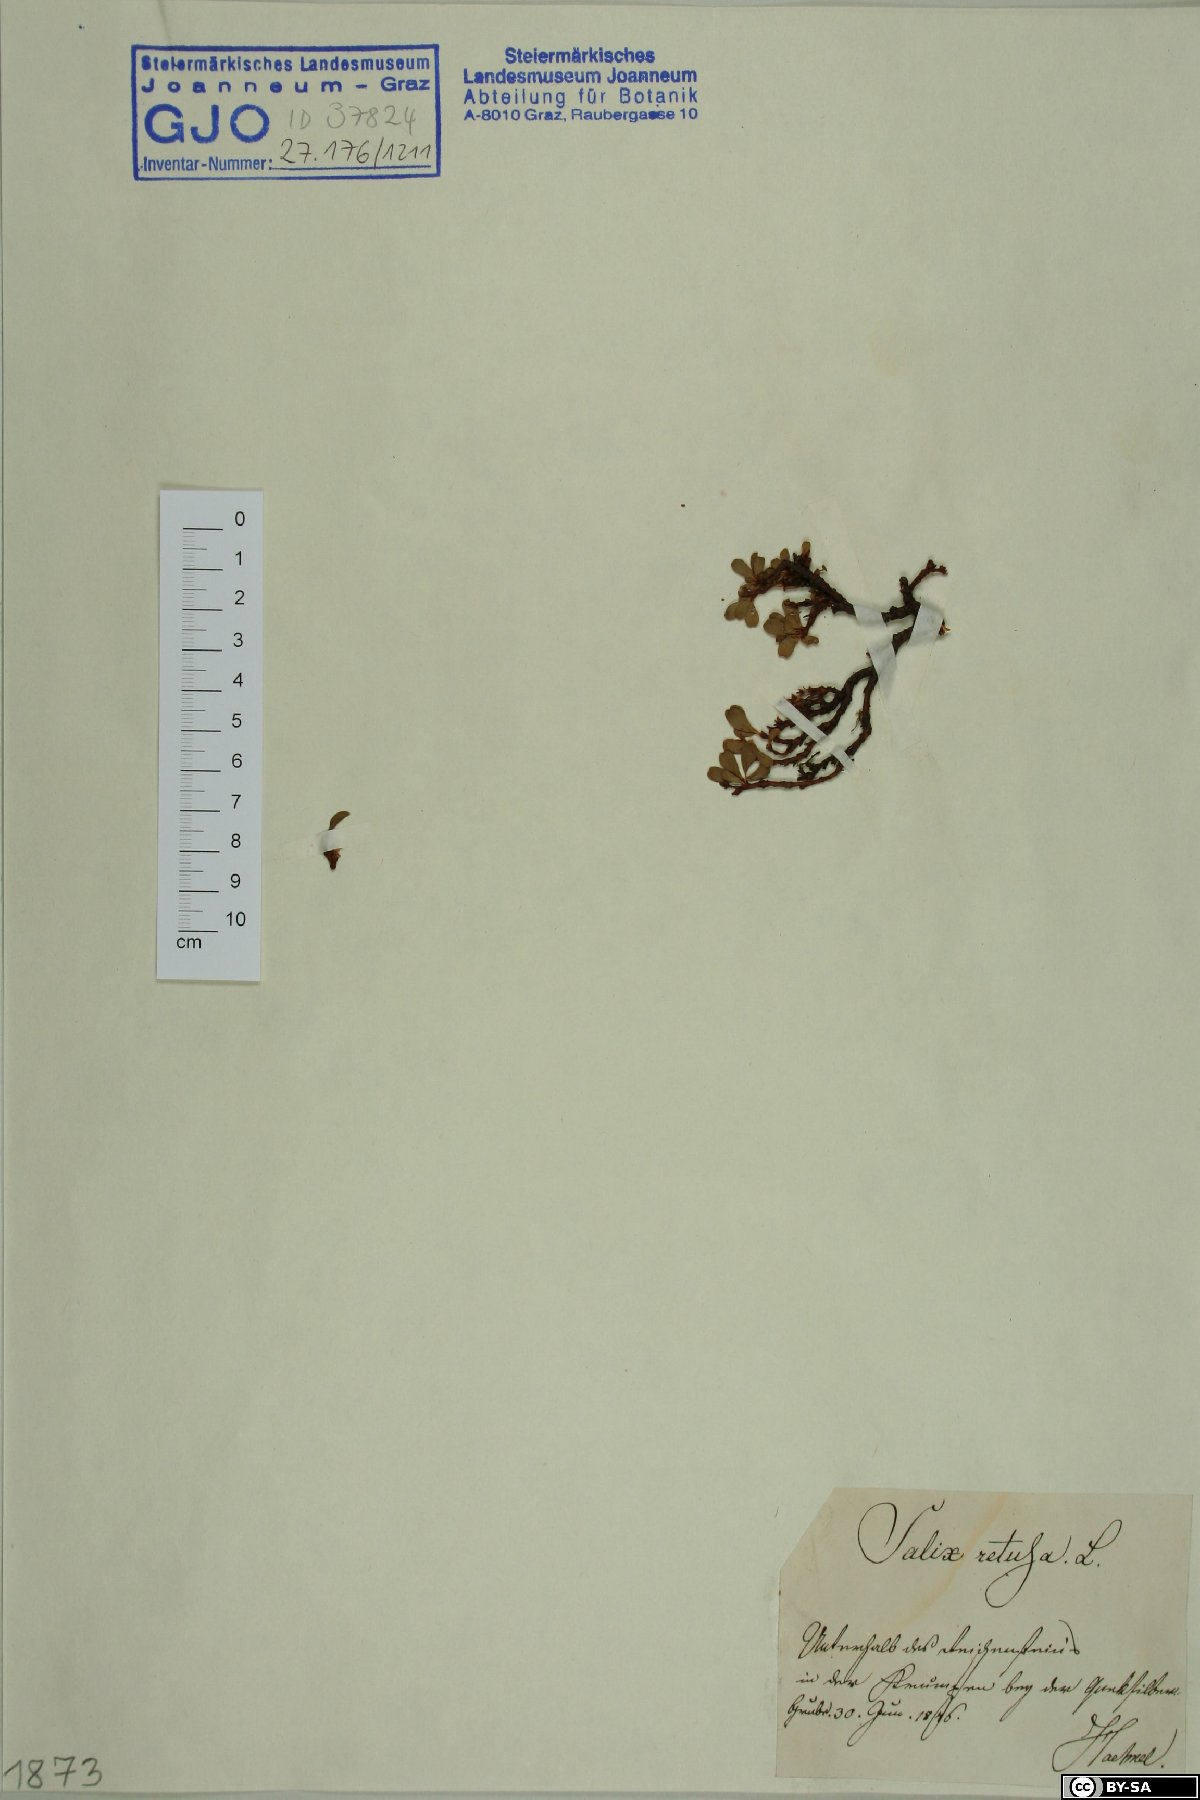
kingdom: Plantae
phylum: Tracheophyta
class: Magnoliopsida
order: Malpighiales
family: Salicaceae
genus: Salix
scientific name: Salix retusa
